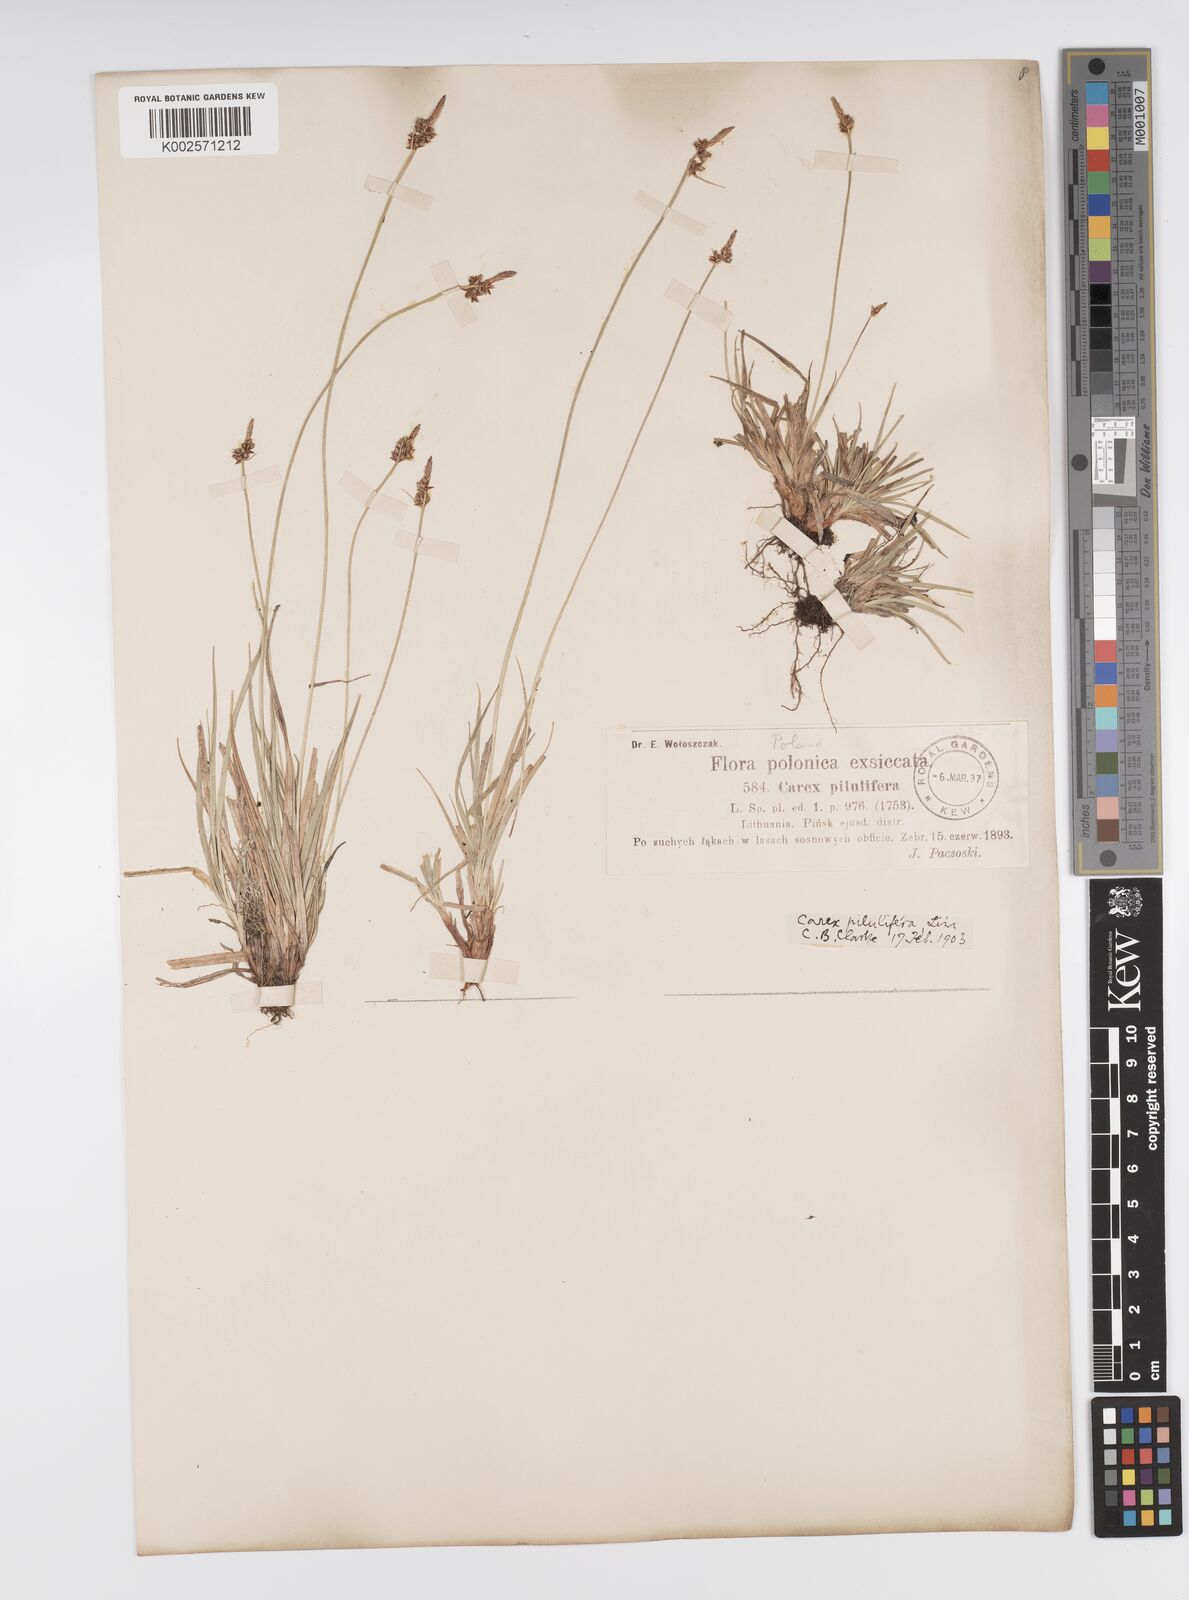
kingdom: Plantae
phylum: Tracheophyta
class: Liliopsida
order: Poales
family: Cyperaceae
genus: Carex
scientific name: Carex pilulifera
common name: Pill sedge
